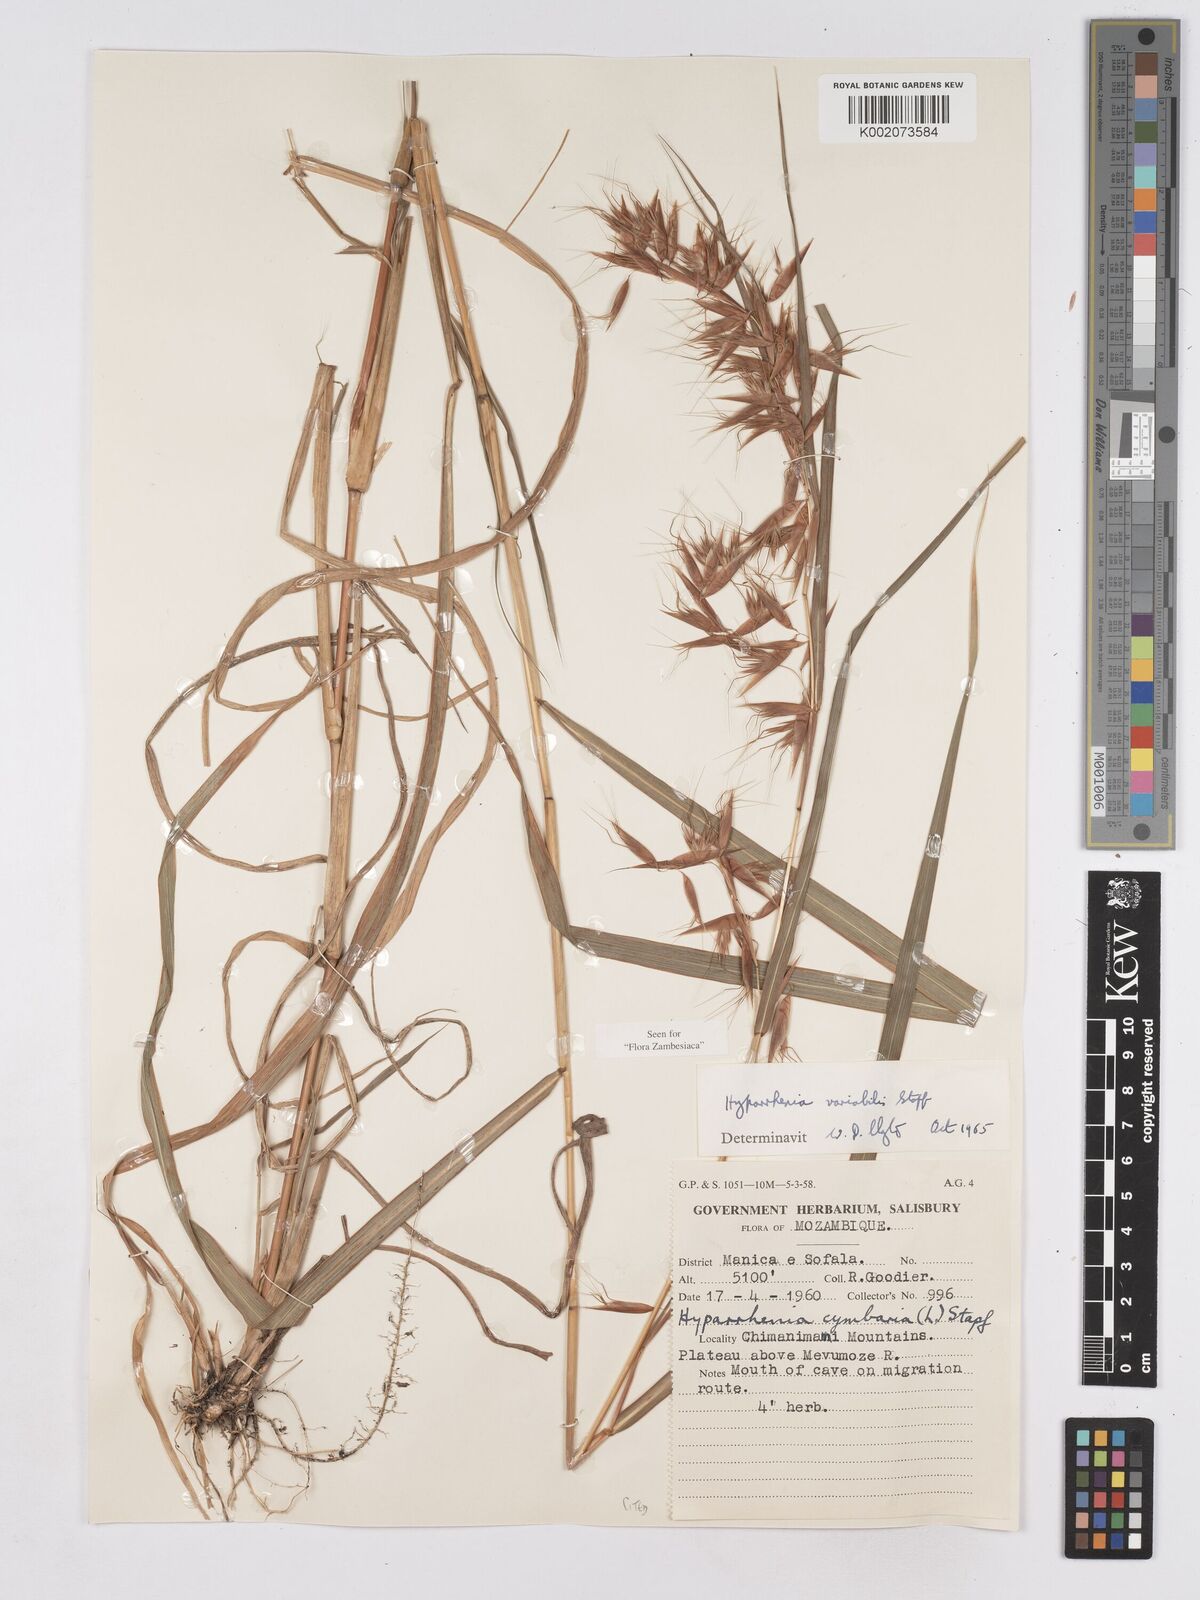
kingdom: Plantae
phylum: Tracheophyta
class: Liliopsida
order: Poales
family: Poaceae
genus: Hyparrhenia
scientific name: Hyparrhenia variabilis
